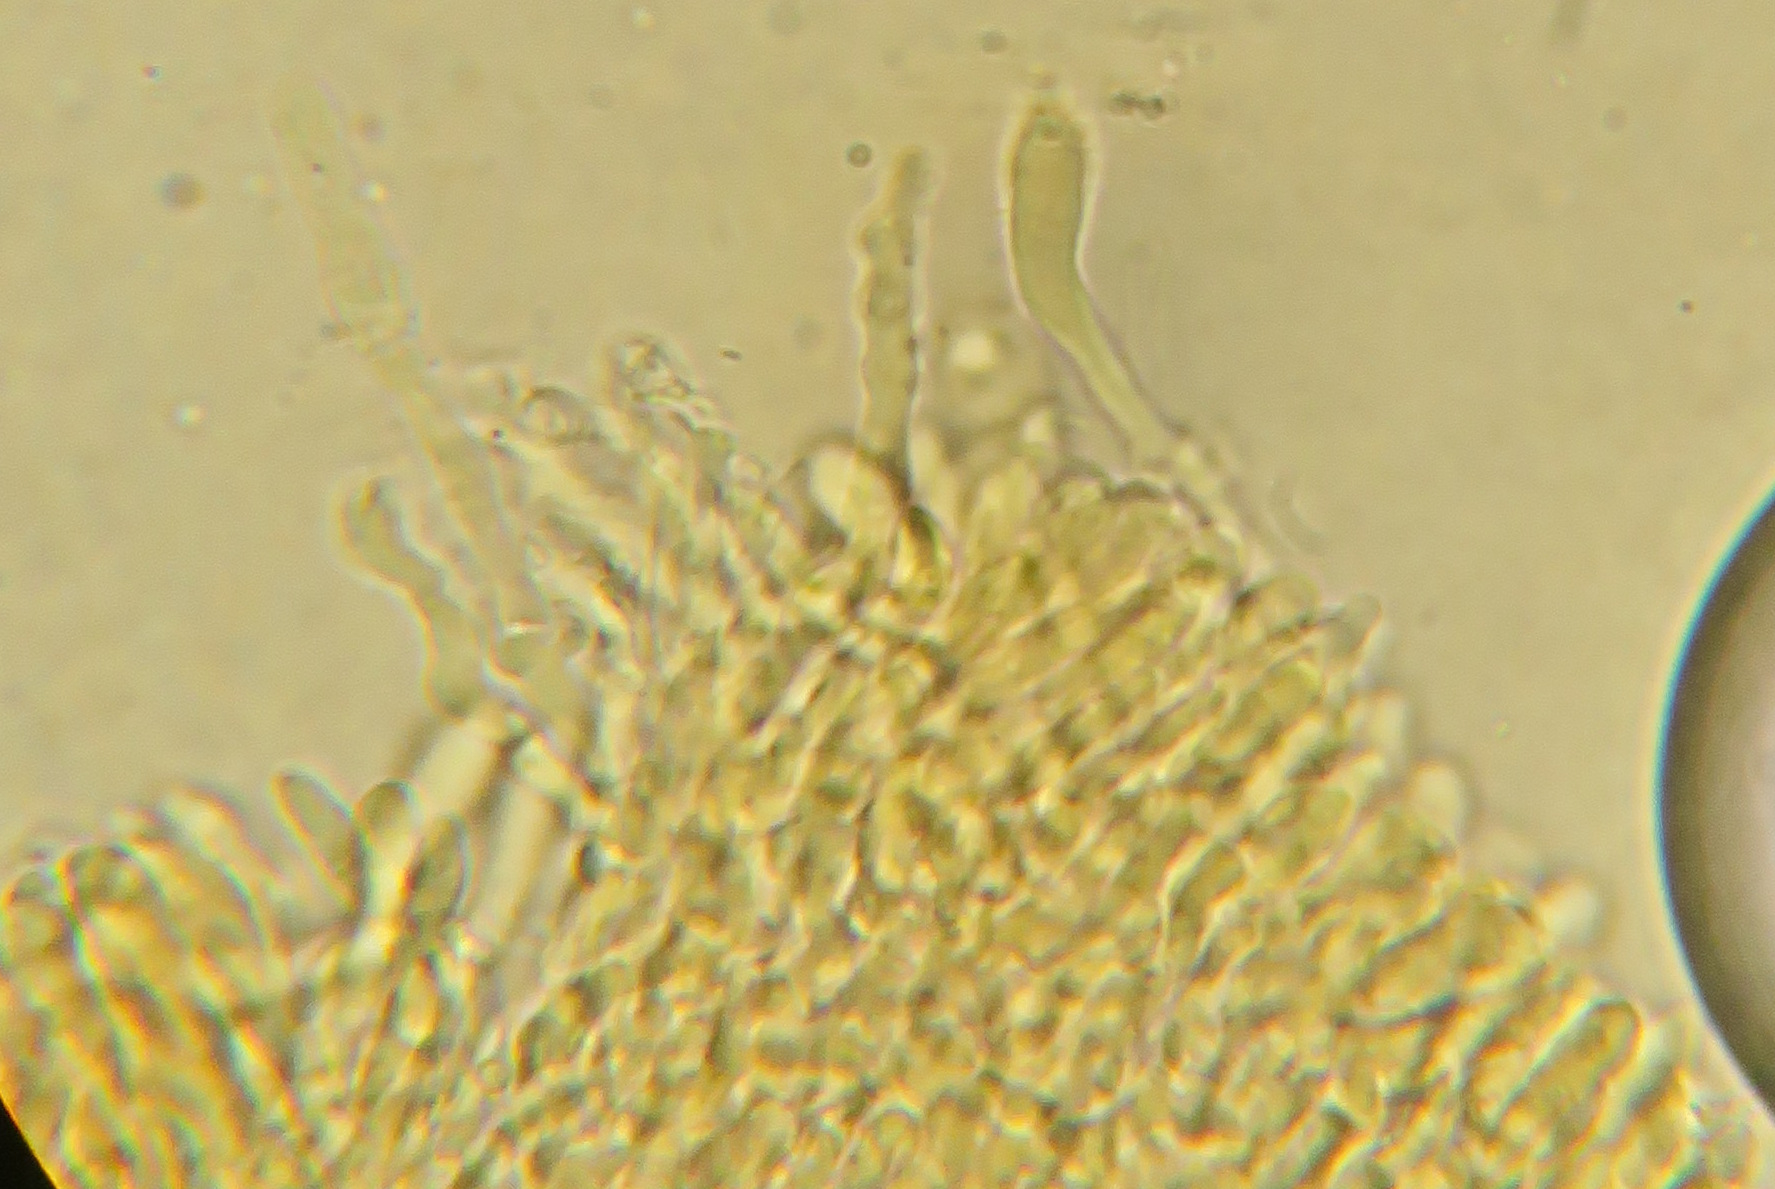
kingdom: Fungi
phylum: Basidiomycota
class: Agaricomycetes
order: Agaricales
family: Marasmiaceae
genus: Calyptella
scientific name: Calyptella capula
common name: hvidlig nældehue
